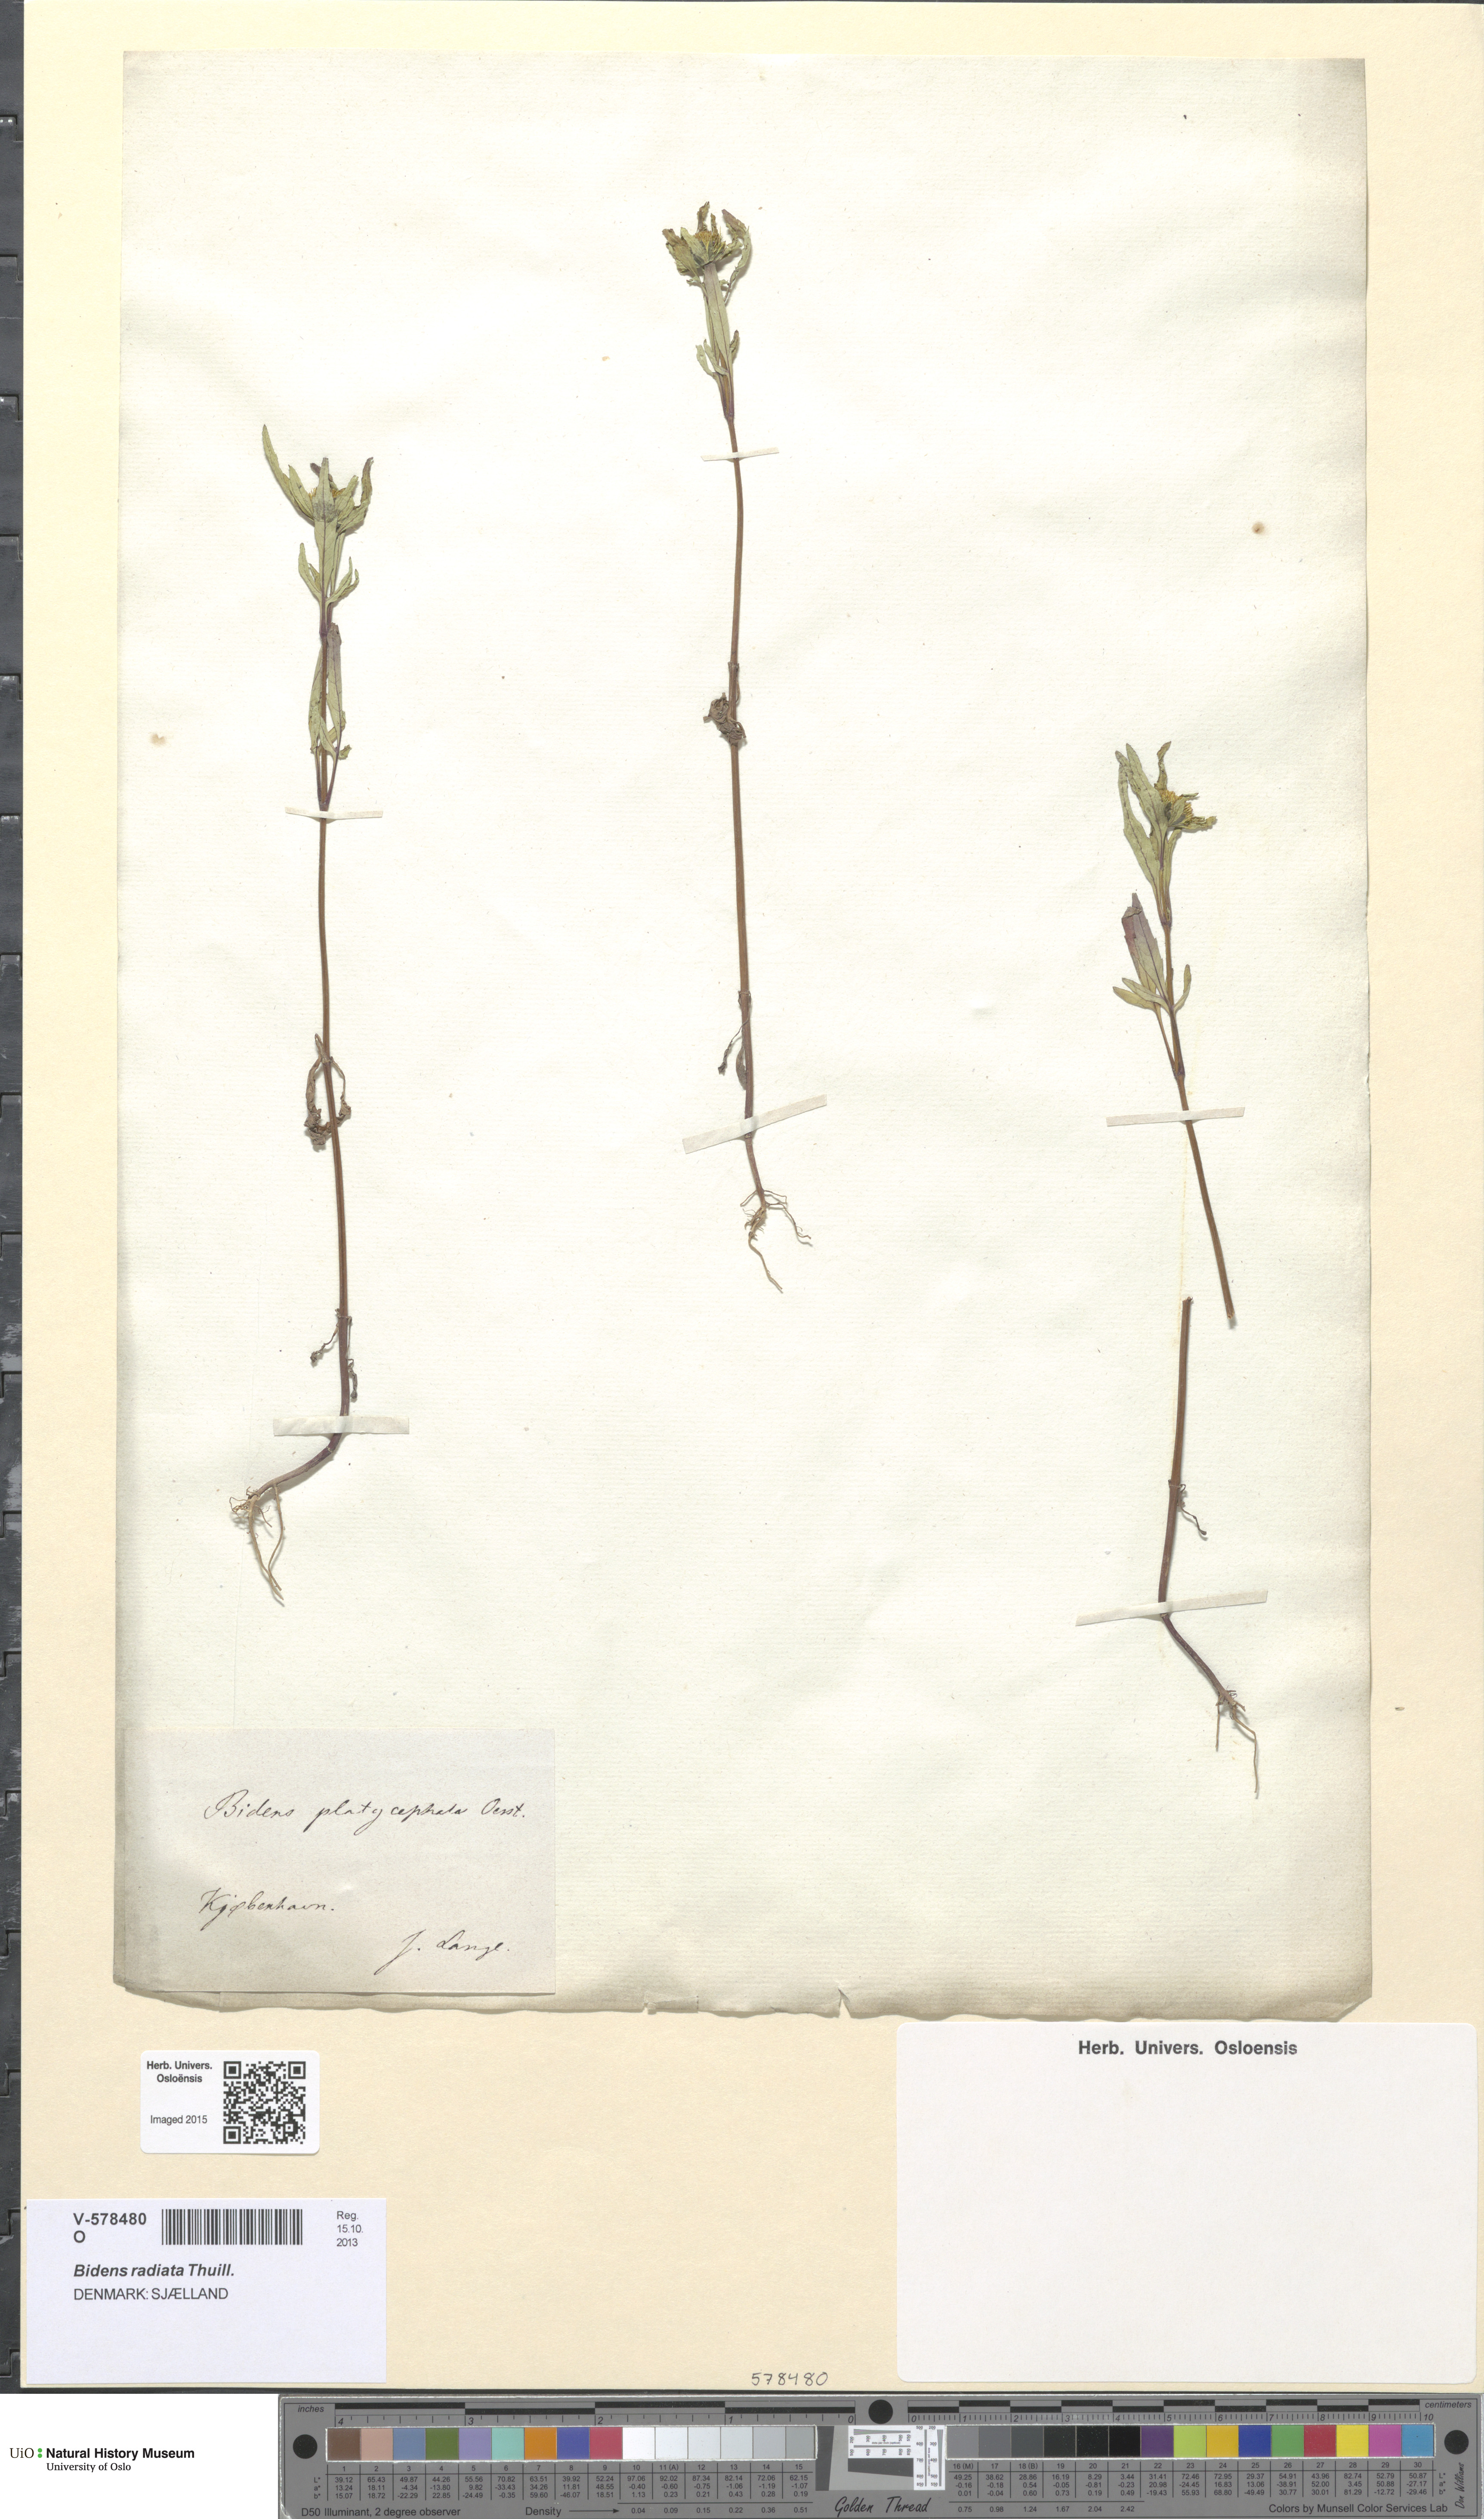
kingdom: Plantae
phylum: Tracheophyta
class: Magnoliopsida
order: Asterales
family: Asteraceae
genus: Bidens
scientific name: Bidens radiata
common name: Radiating bur-marigold
